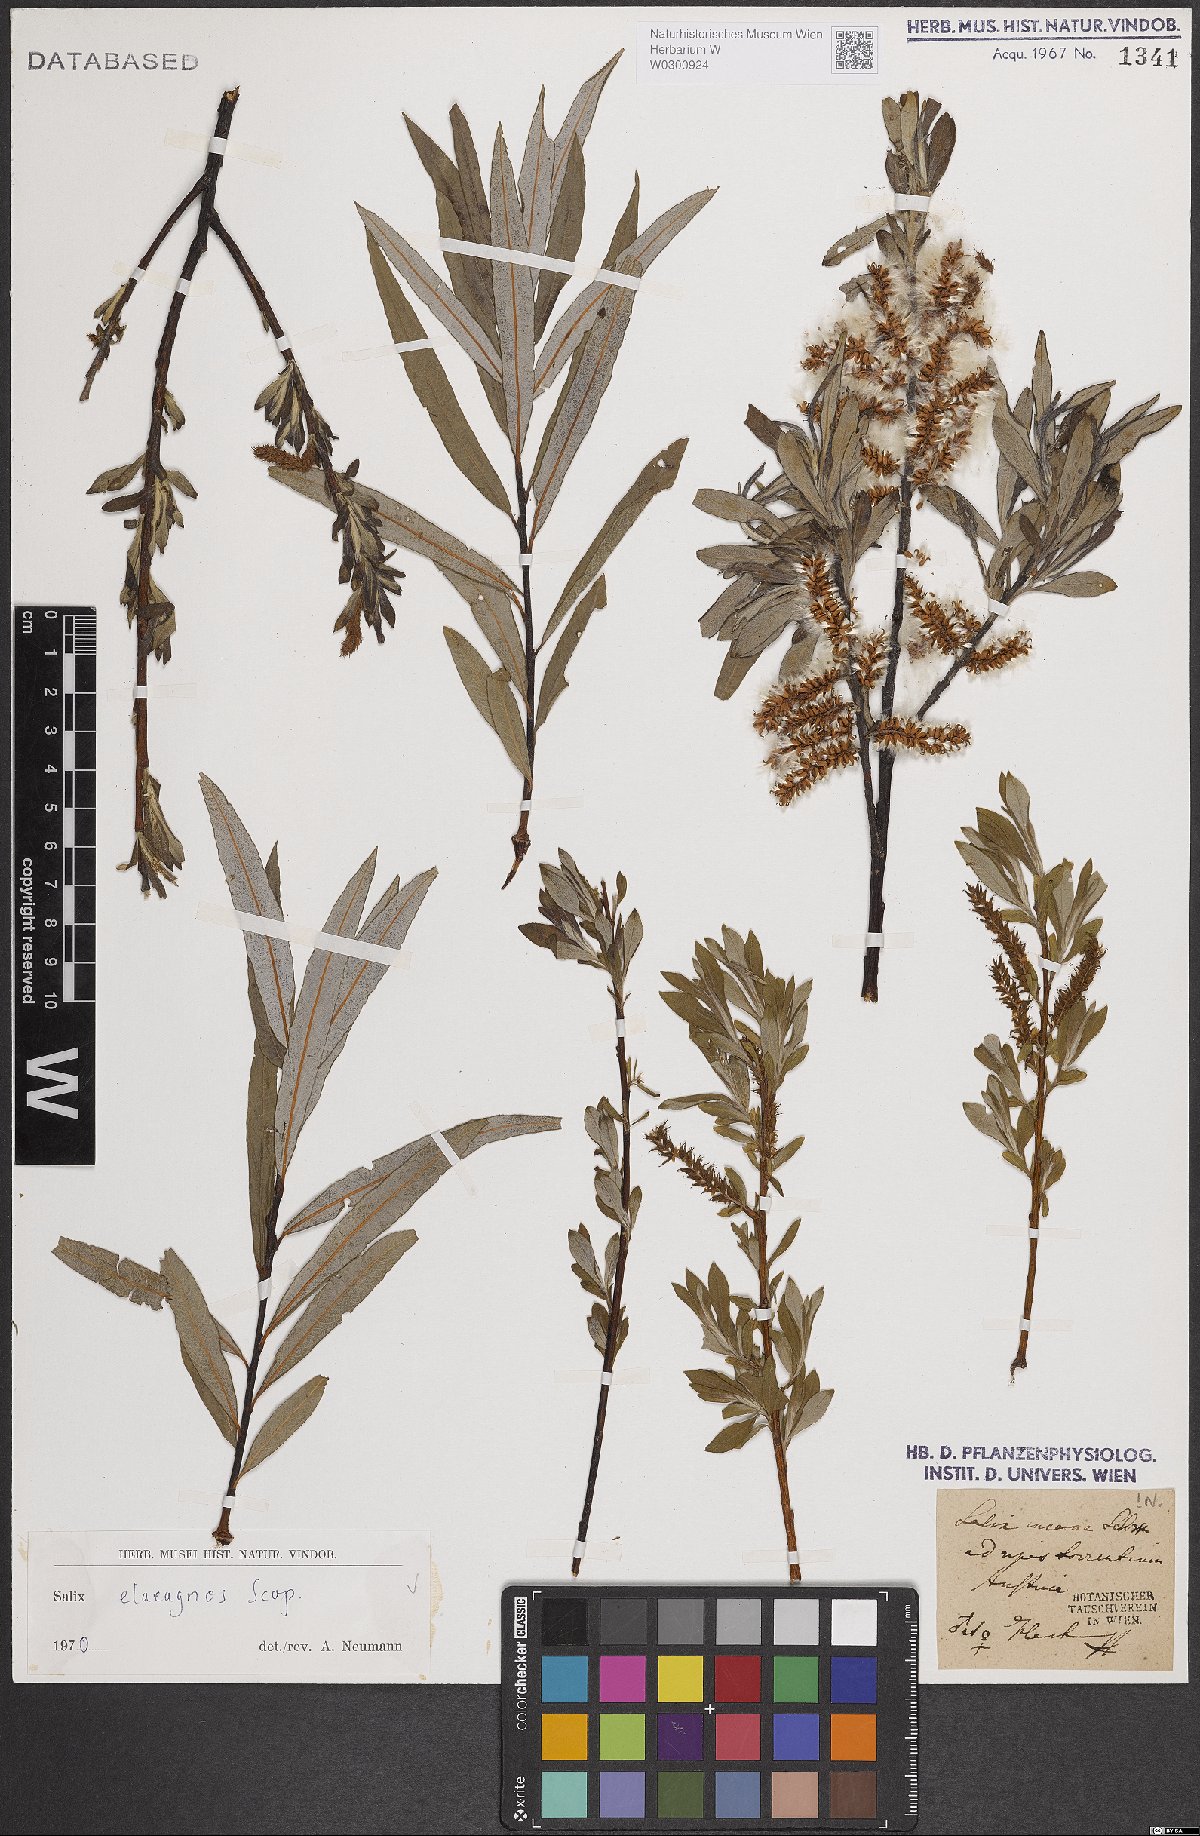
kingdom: Plantae
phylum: Tracheophyta
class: Magnoliopsida
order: Malpighiales
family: Salicaceae
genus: Salix
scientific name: Salix eleagnos
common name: Elaeagnus willow
